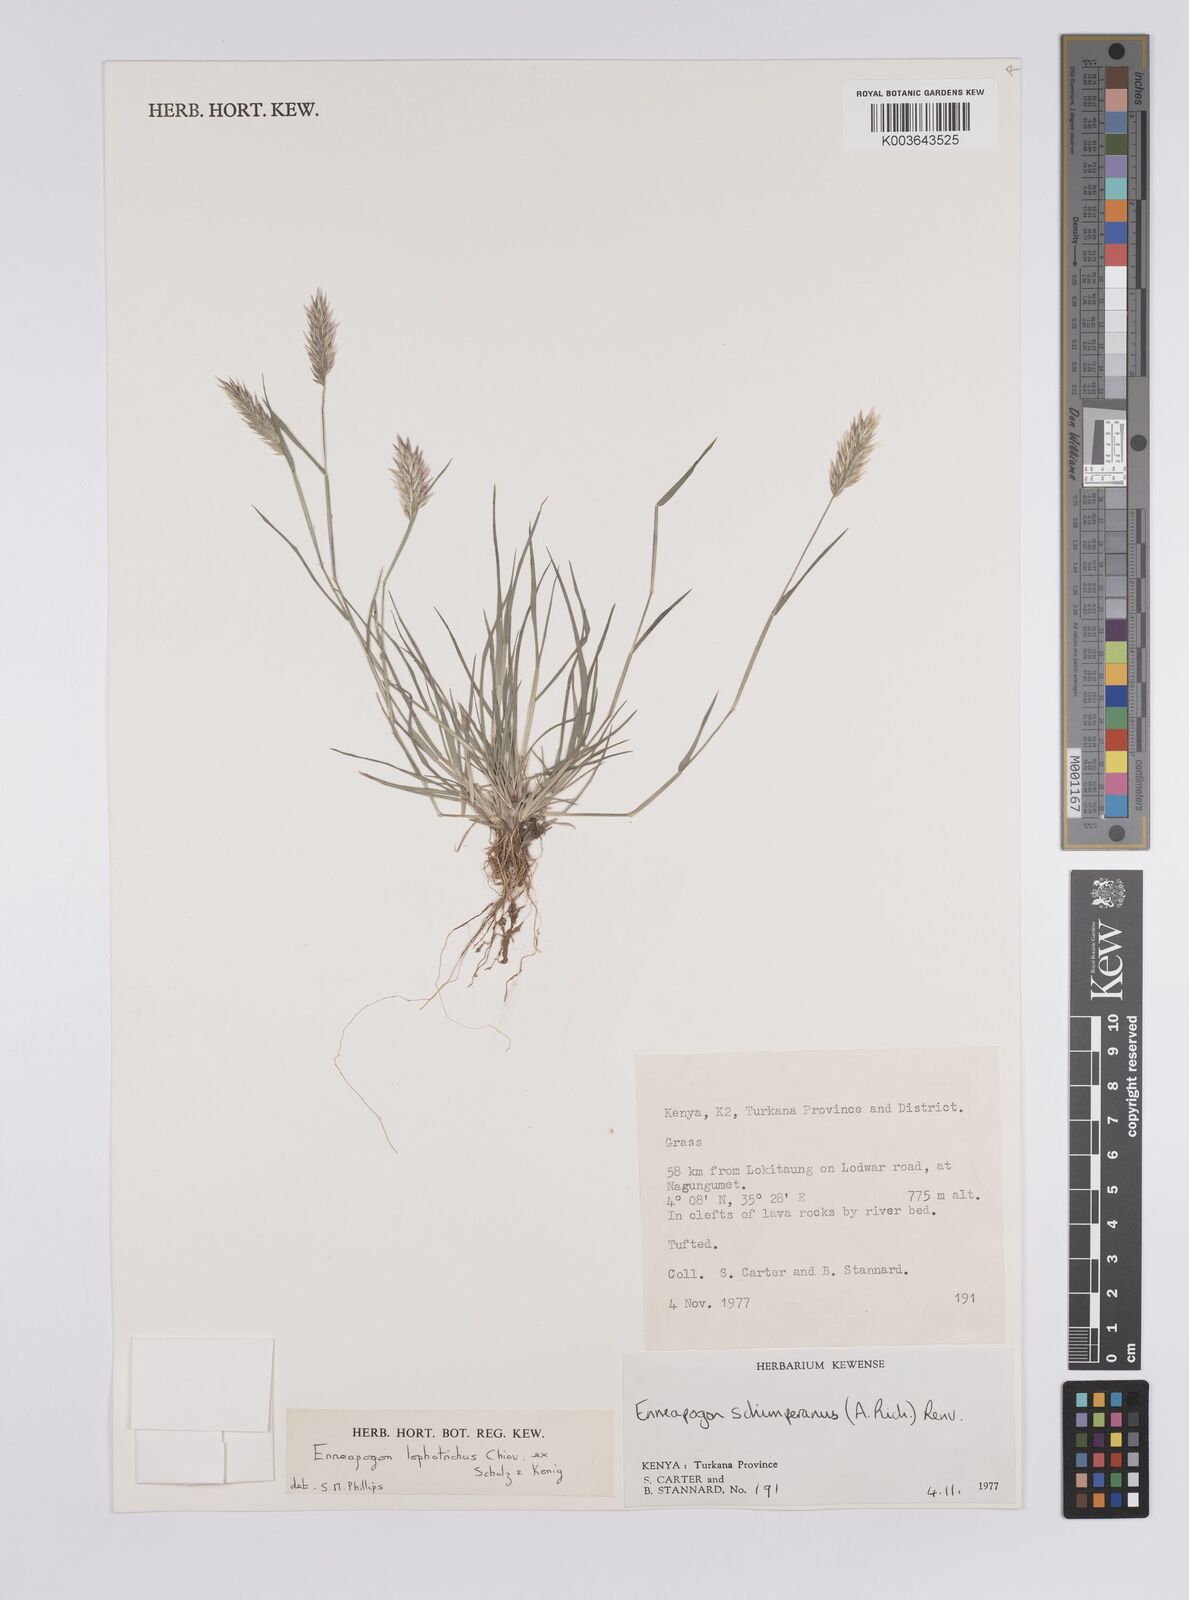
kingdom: Plantae
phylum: Tracheophyta
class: Liliopsida
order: Poales
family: Poaceae
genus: Enneapogon
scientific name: Enneapogon lophotrichus
